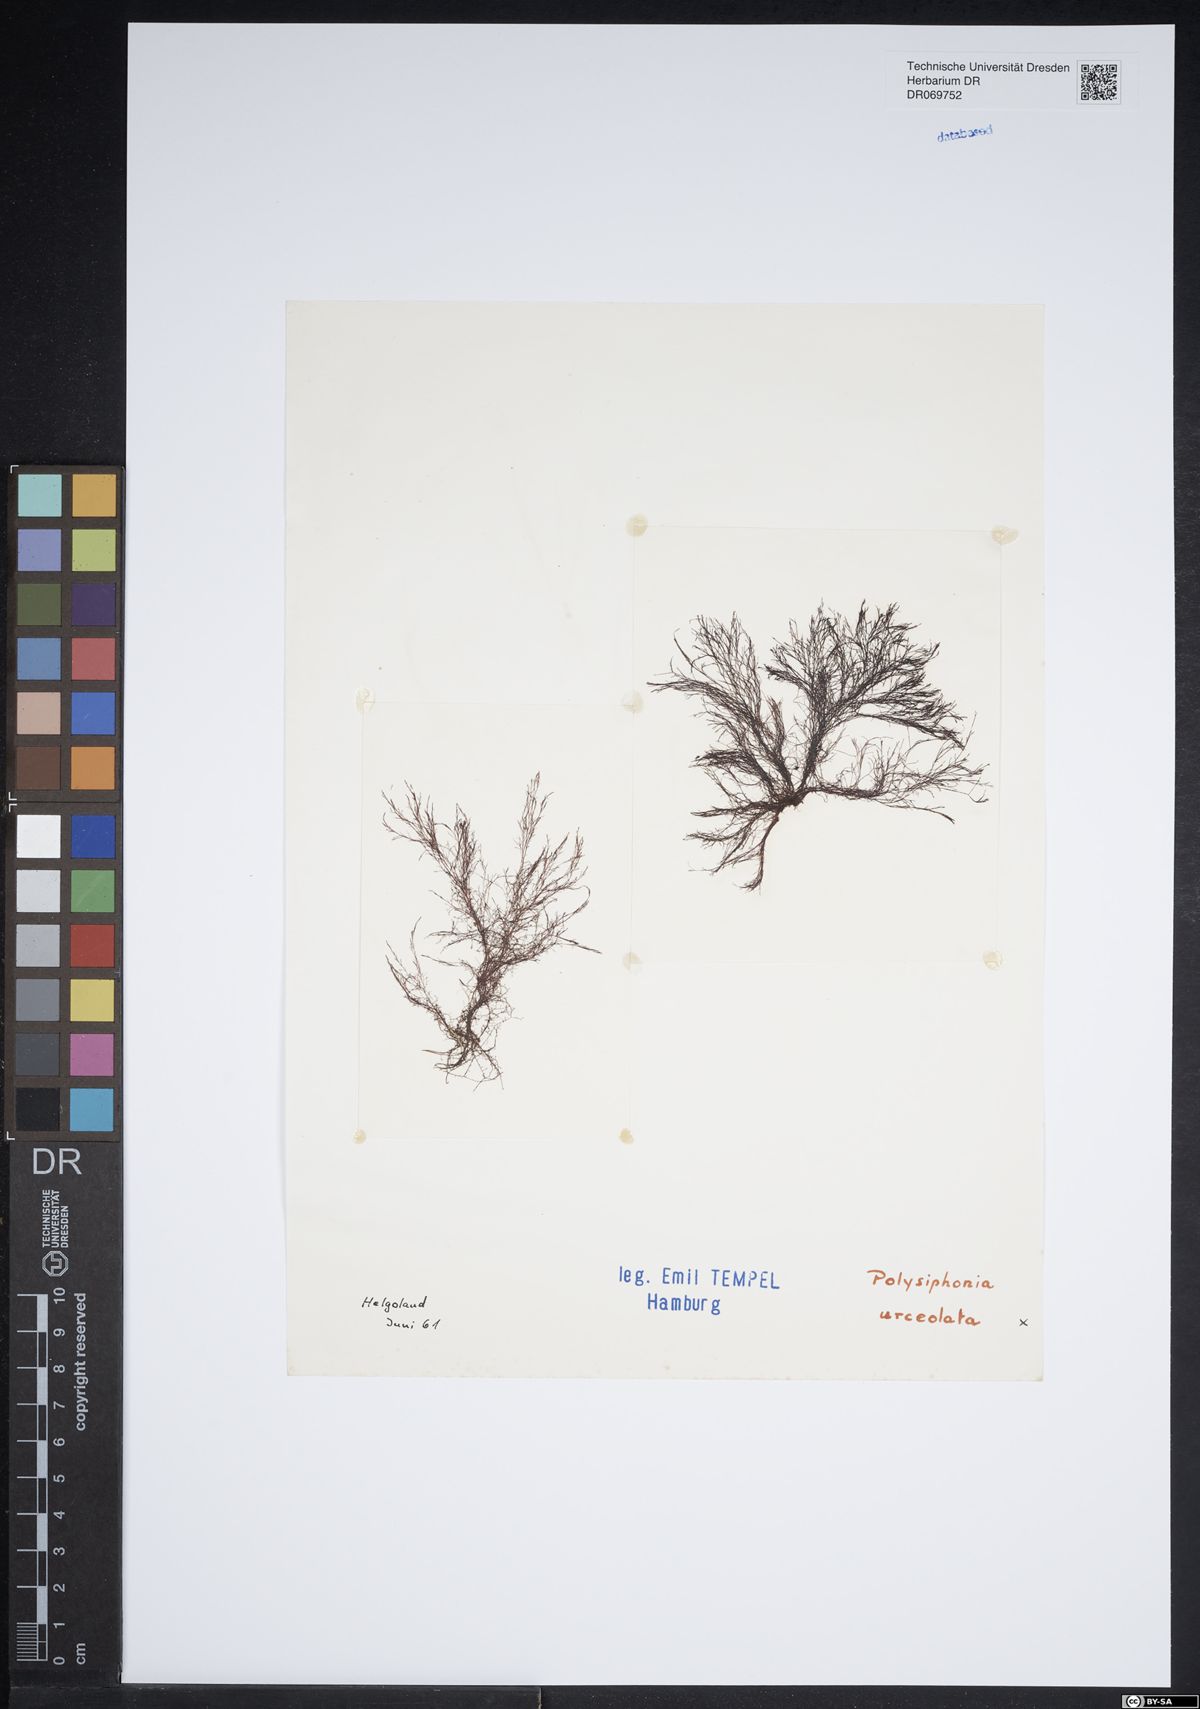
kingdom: Plantae
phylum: Rhodophyta
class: Florideophyceae
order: Ceramiales
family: Rhodomelaceae
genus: Polysiphonia
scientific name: Polysiphonia stricta
